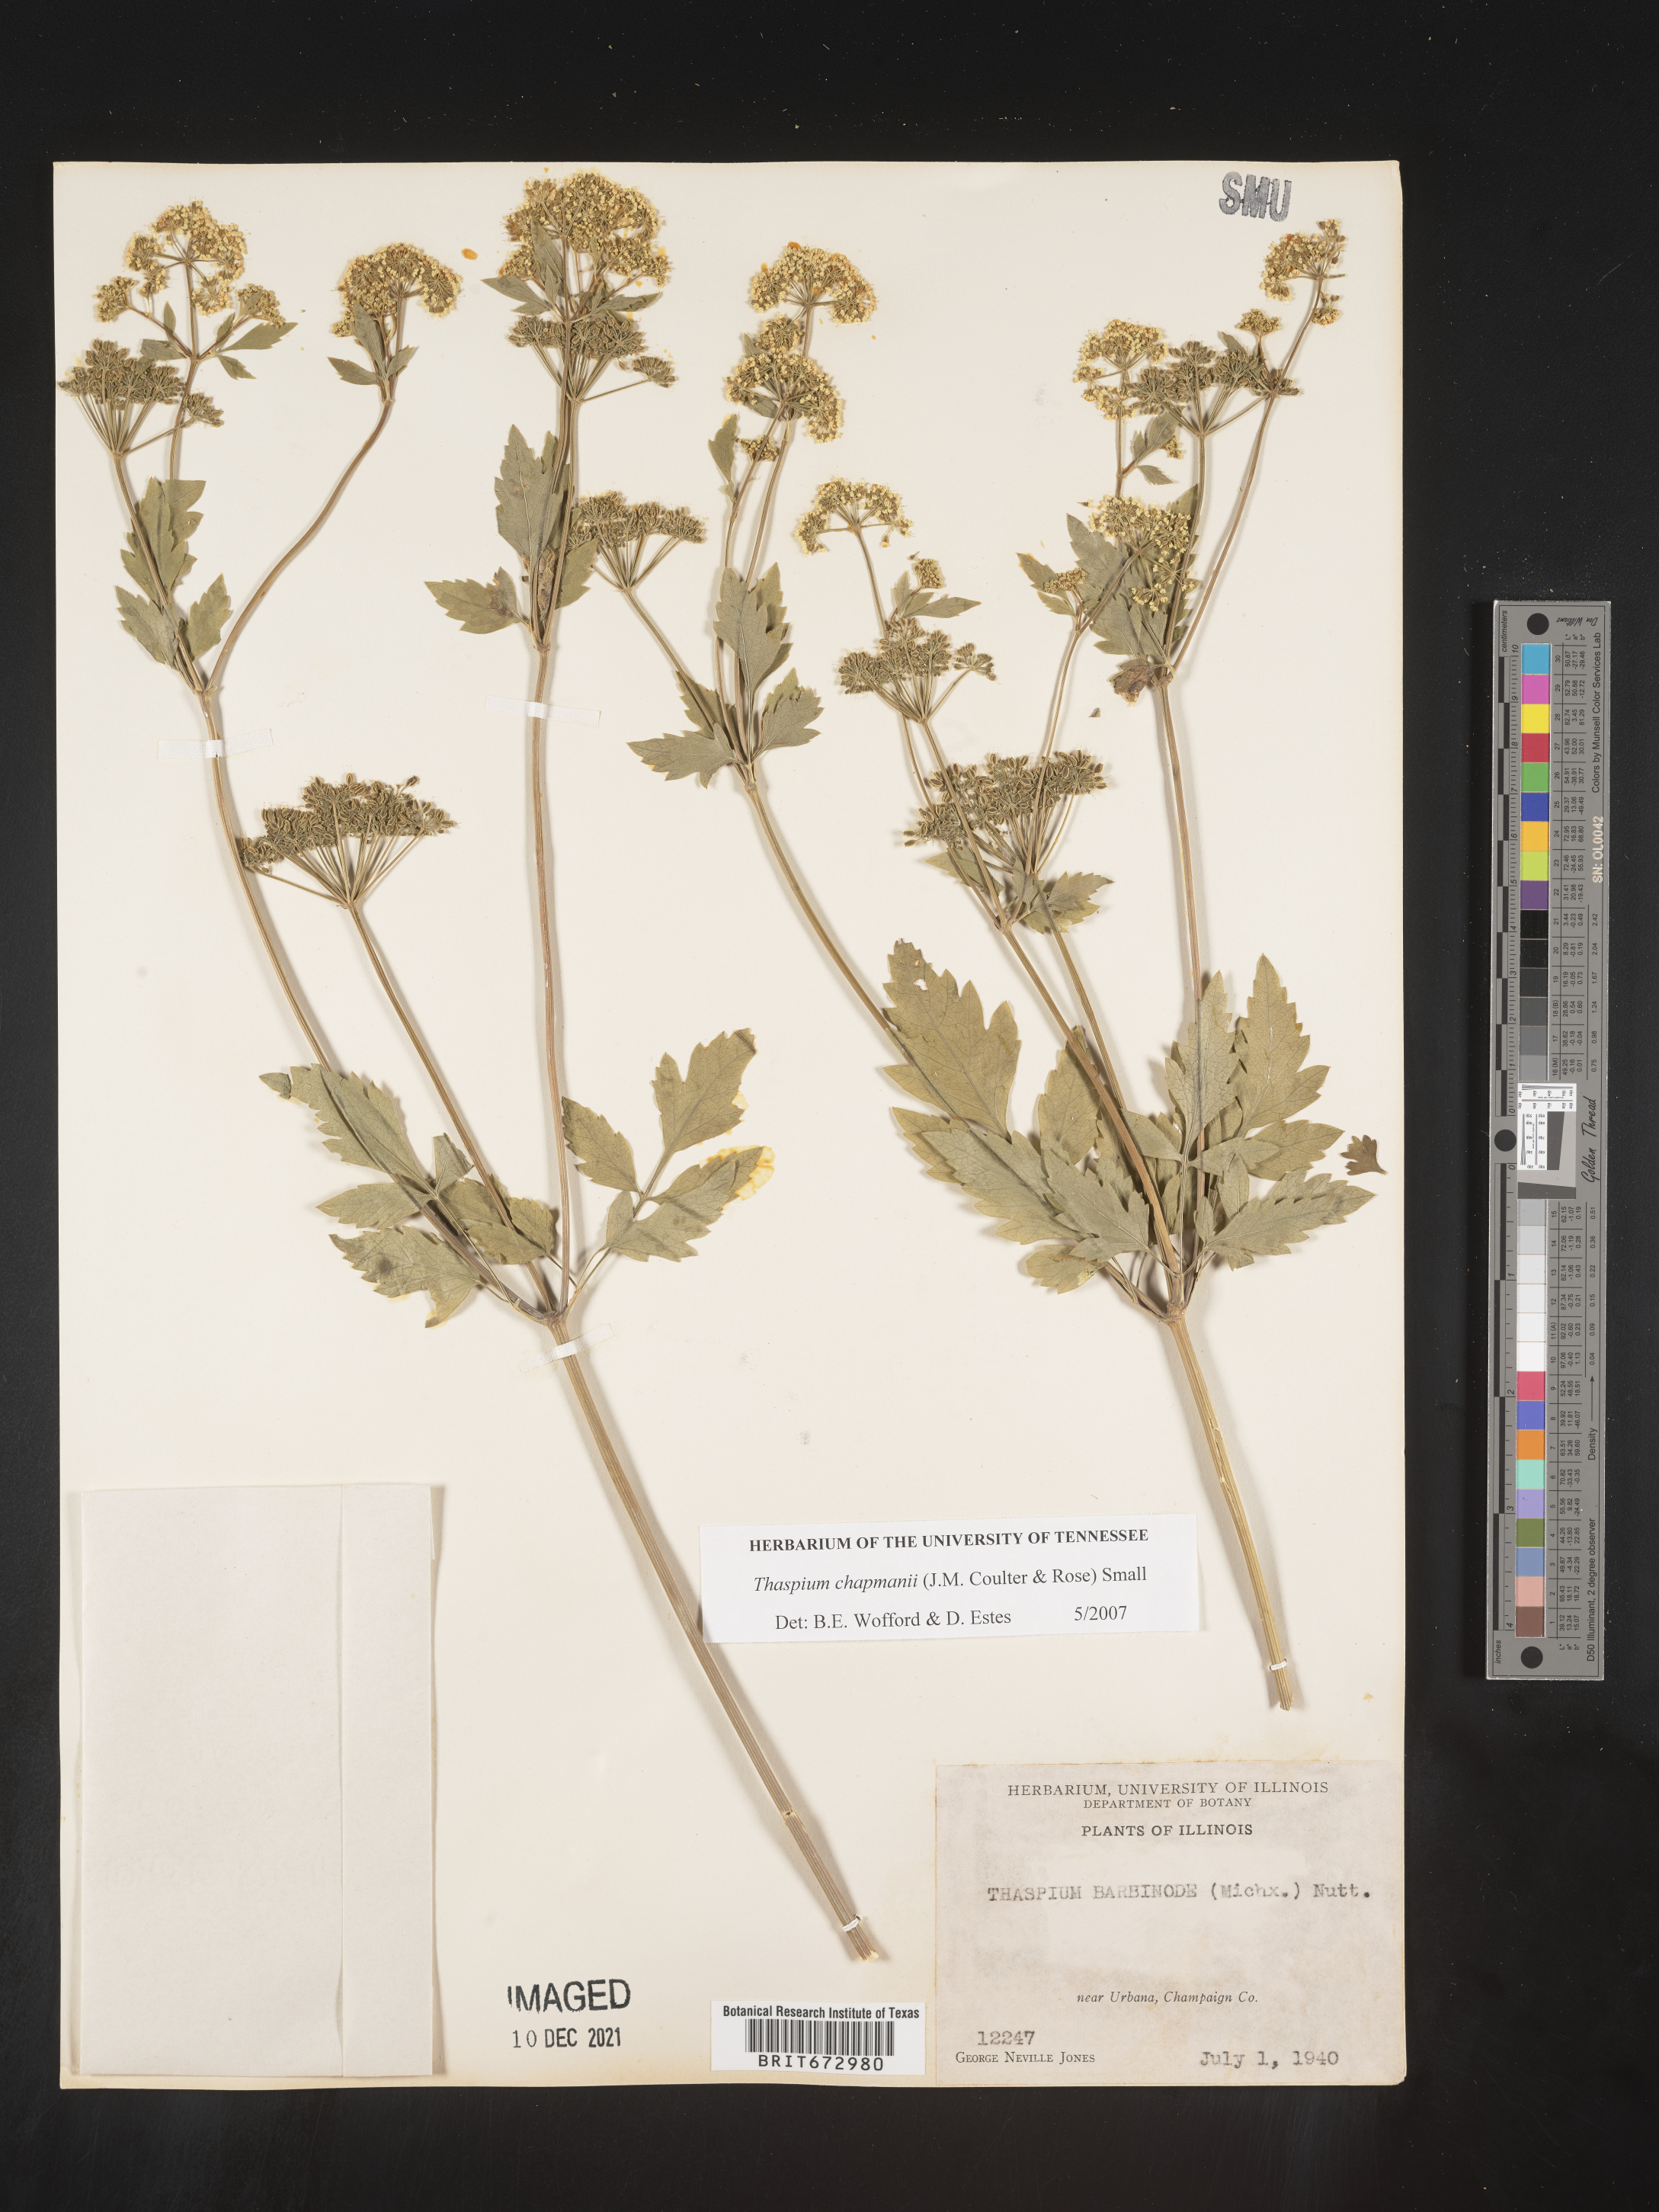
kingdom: Plantae
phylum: Tracheophyta
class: Magnoliopsida
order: Apiales
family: Apiaceae
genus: Thaspium
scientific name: Thaspium barbinode
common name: Bearded meadow-parsnip
